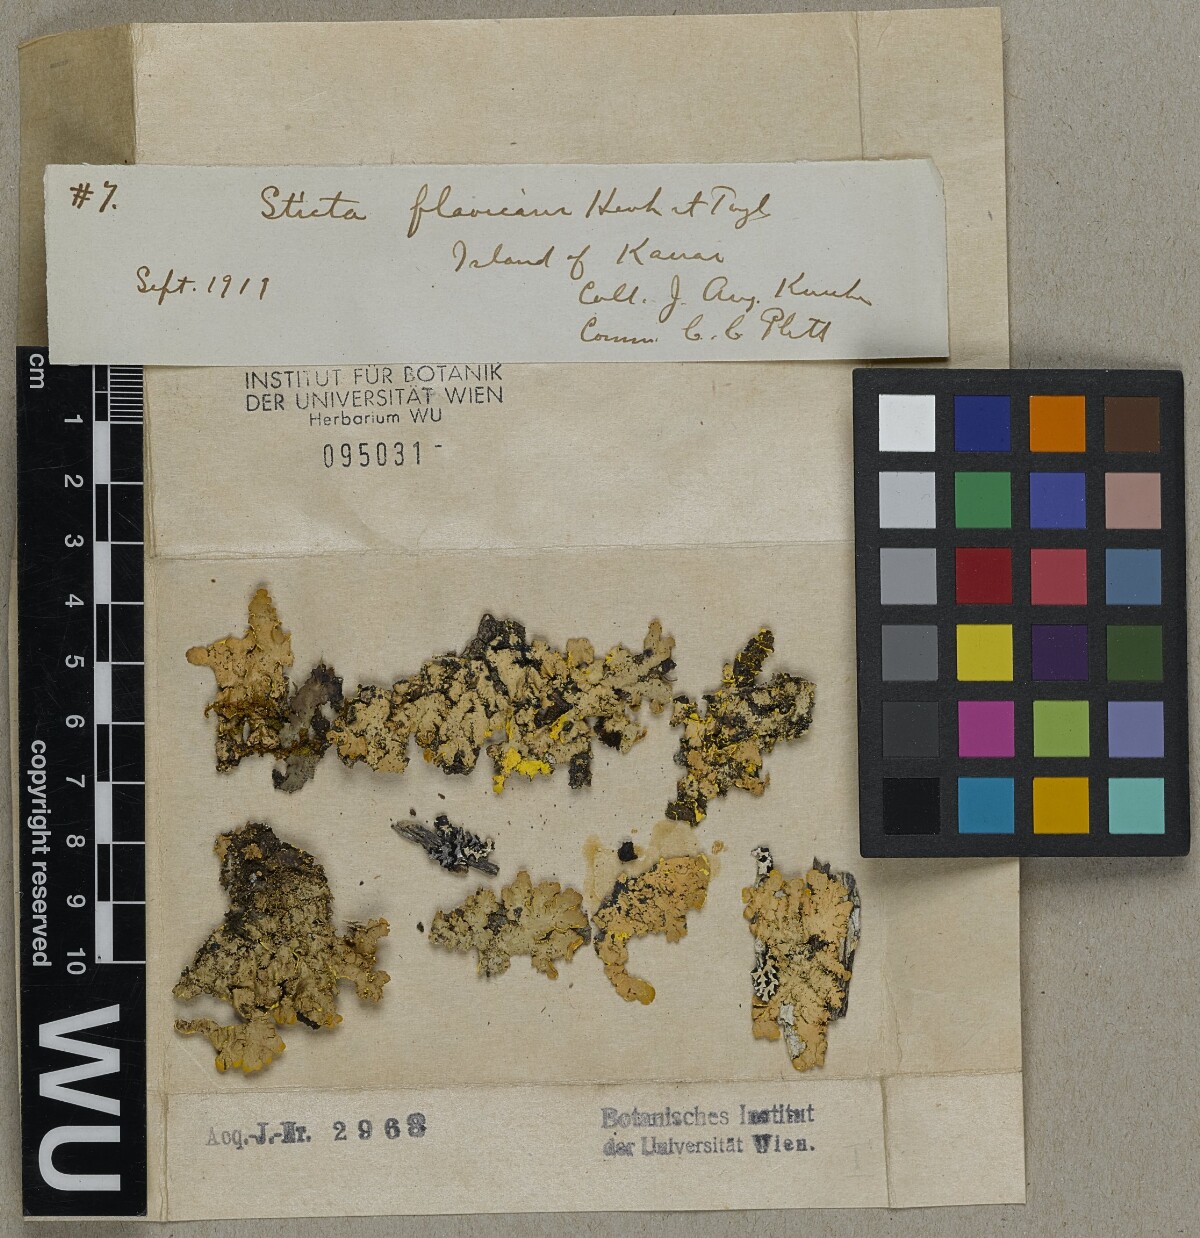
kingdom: Fungi
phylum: Ascomycota
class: Lecanoromycetes
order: Peltigerales
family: Lobariaceae
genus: Podostictina
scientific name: Podostictina flavicans
